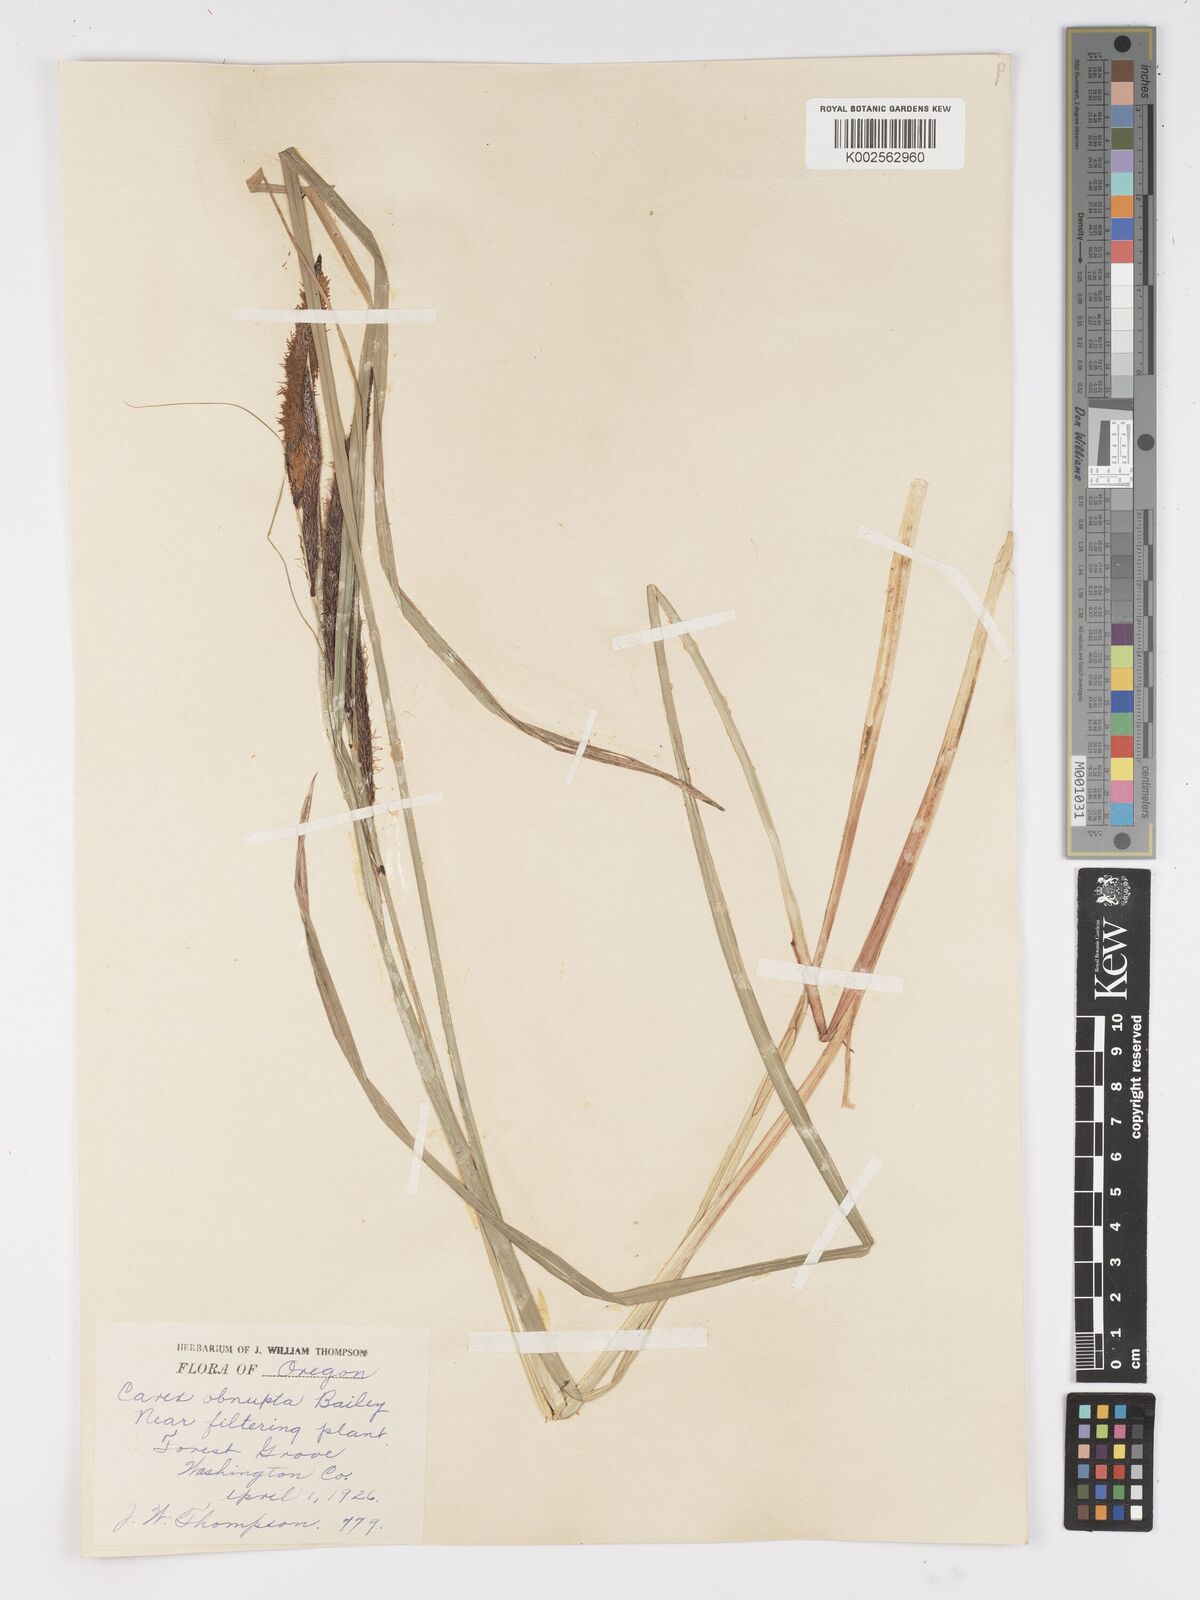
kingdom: Plantae
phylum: Tracheophyta
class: Liliopsida
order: Poales
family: Cyperaceae
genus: Carex
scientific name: Carex obnupta
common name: Slough sedge
